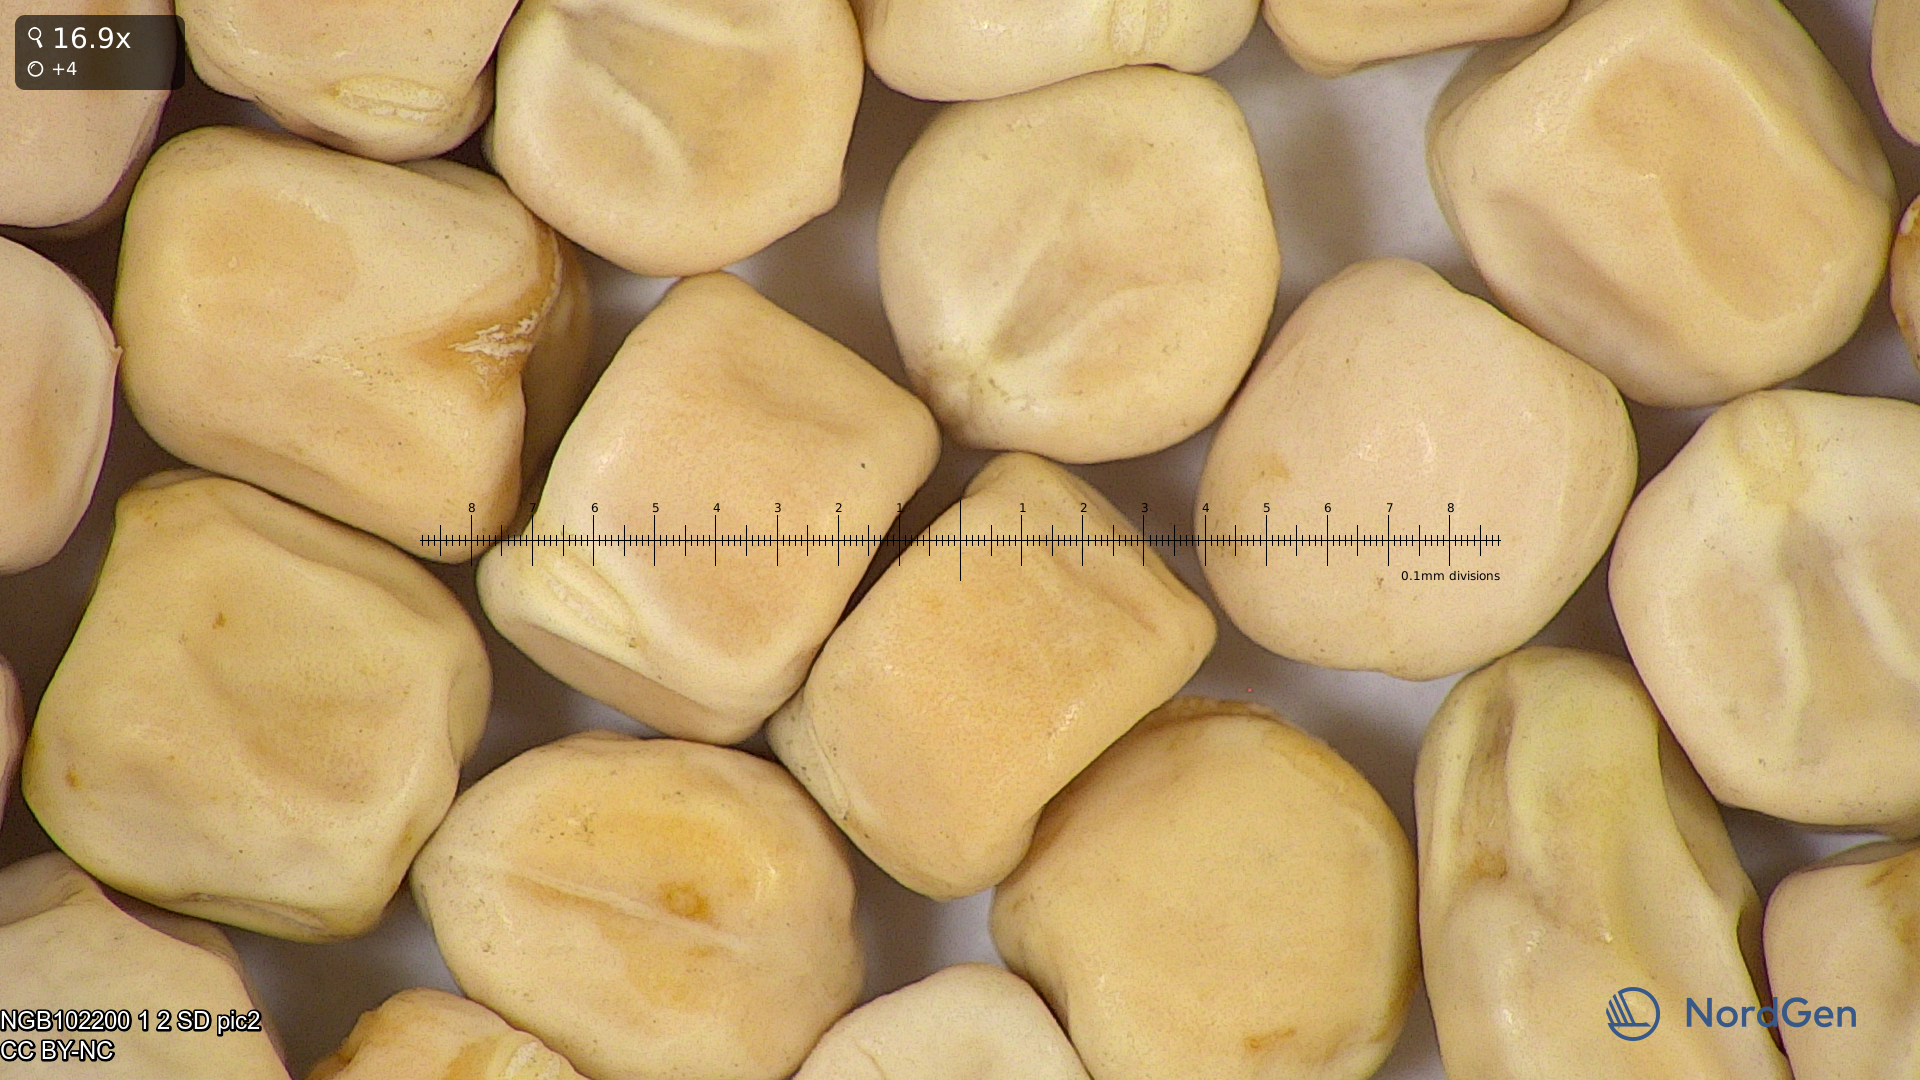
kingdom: Plantae
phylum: Tracheophyta
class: Magnoliopsida
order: Fabales
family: Fabaceae
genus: Lathyrus
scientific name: Lathyrus oleraceus
